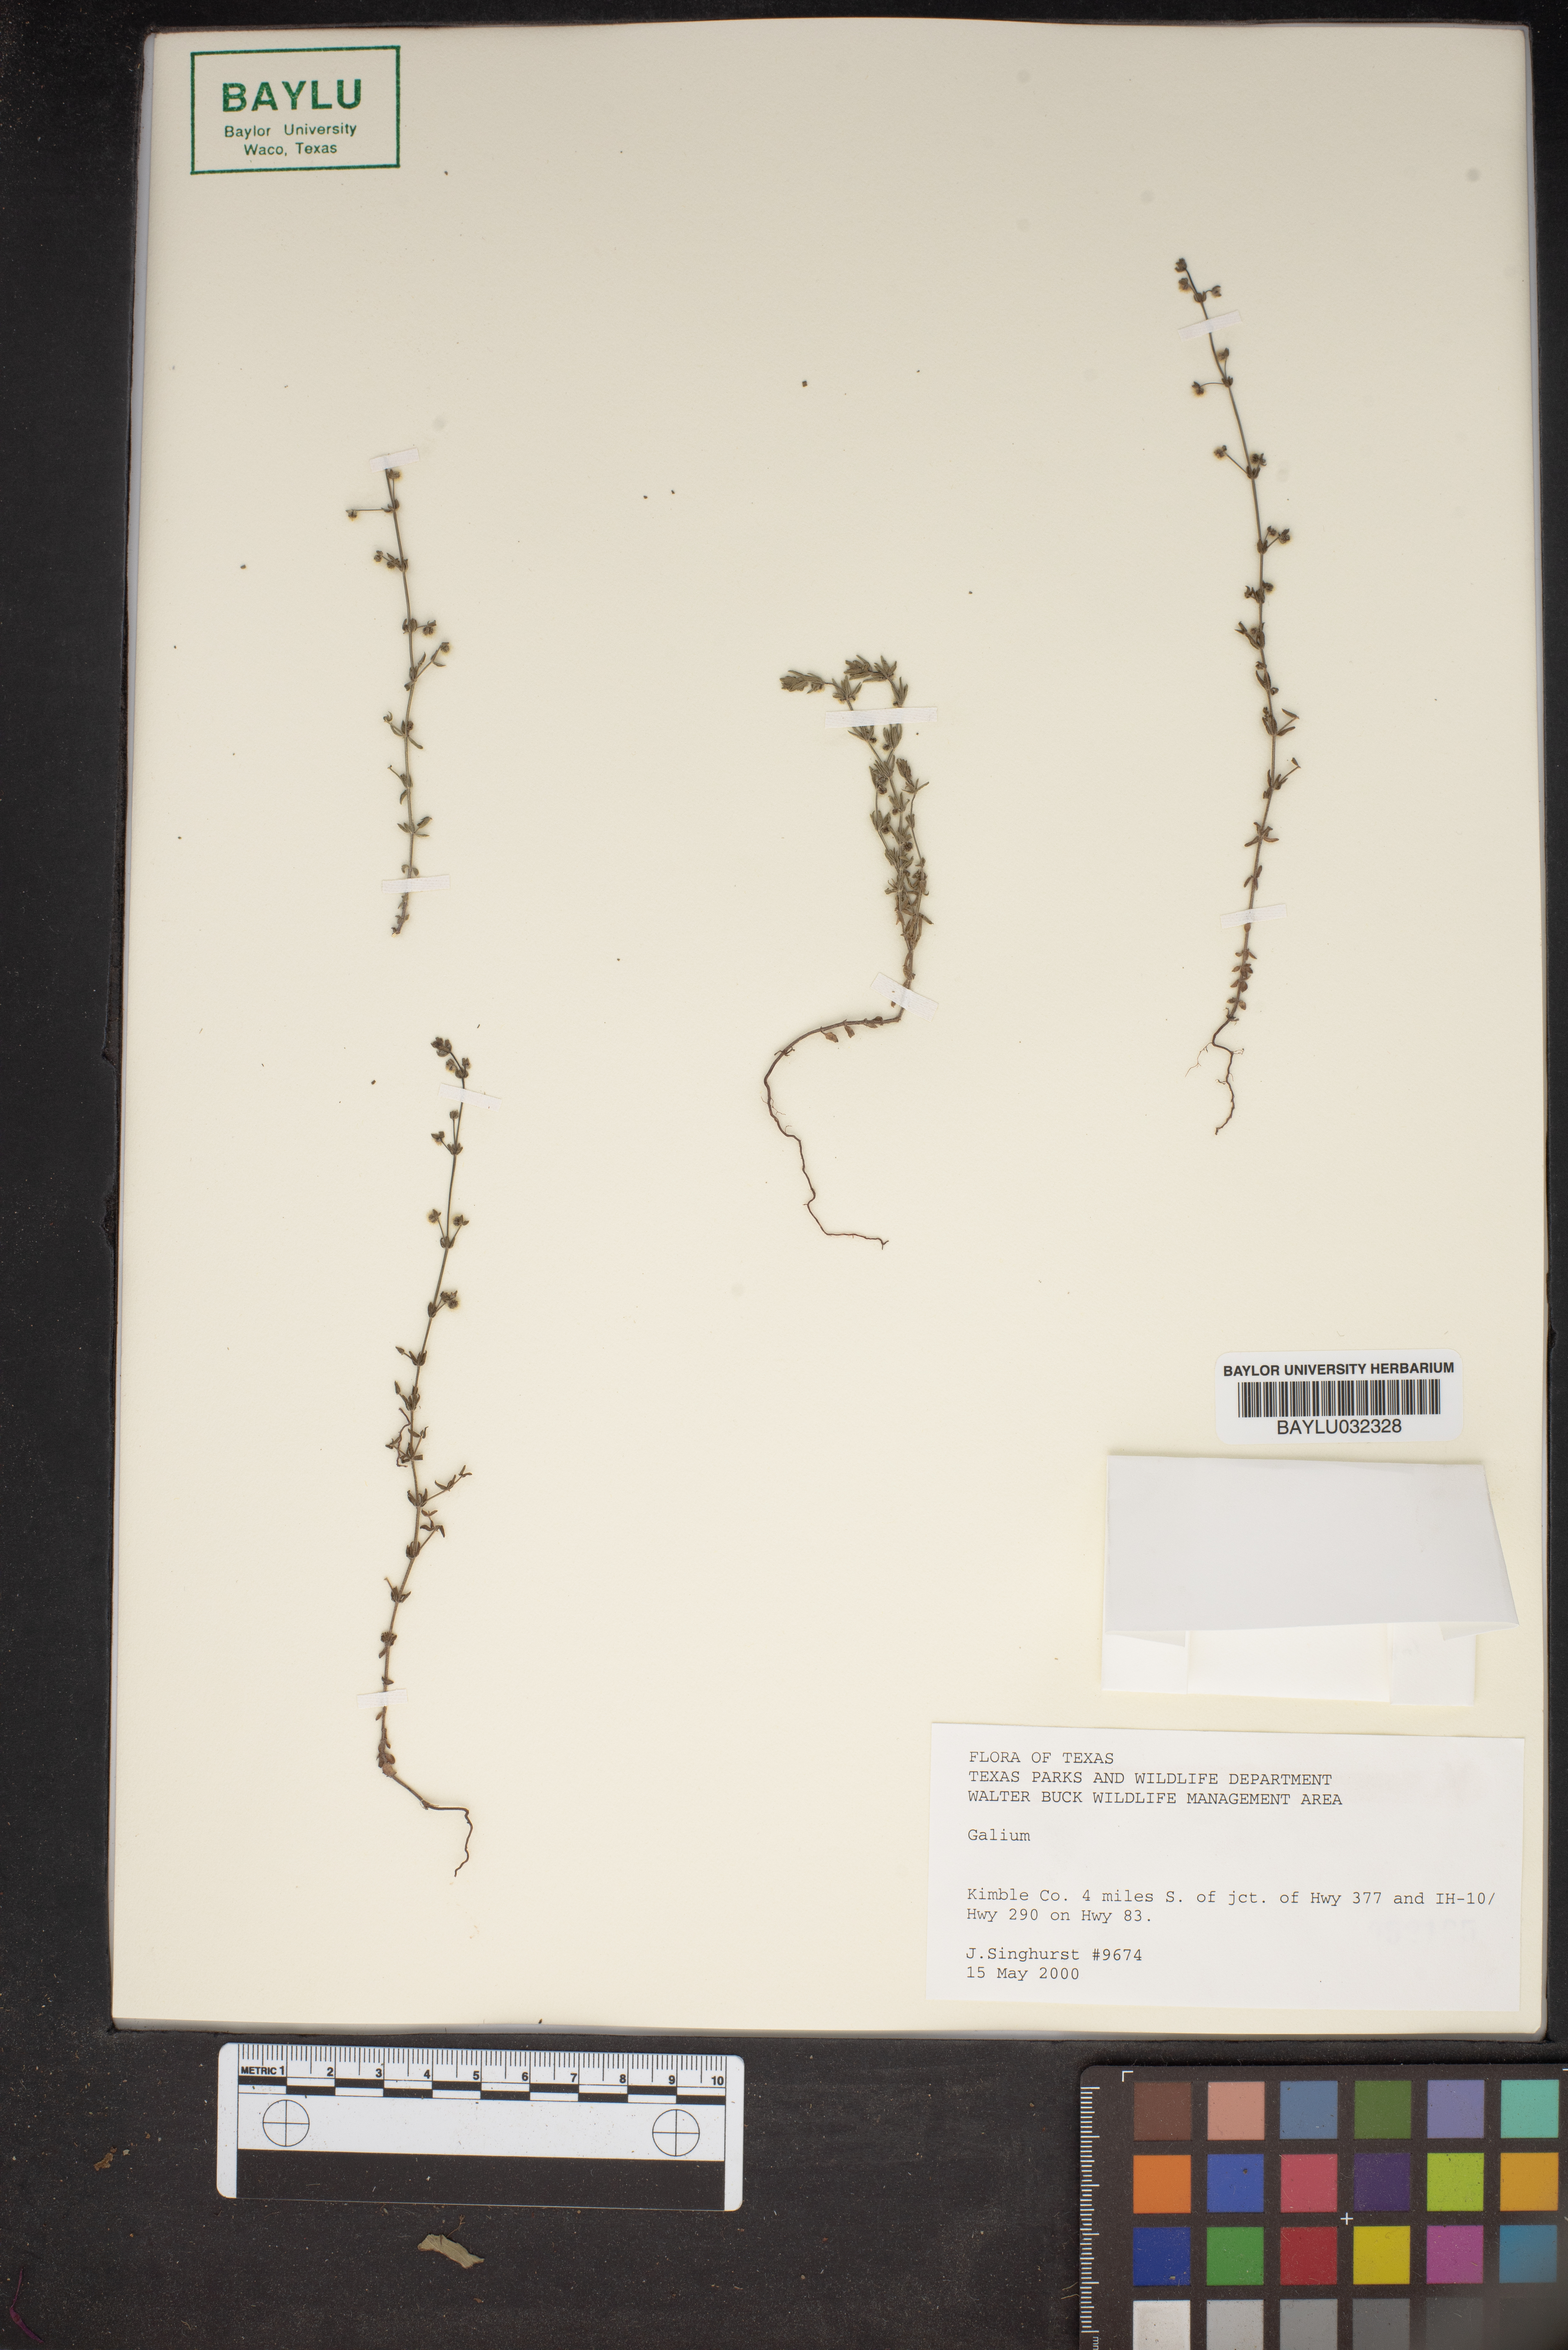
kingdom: Plantae
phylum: Tracheophyta
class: Magnoliopsida
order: Gentianales
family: Rubiaceae
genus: Galium
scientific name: Galium
